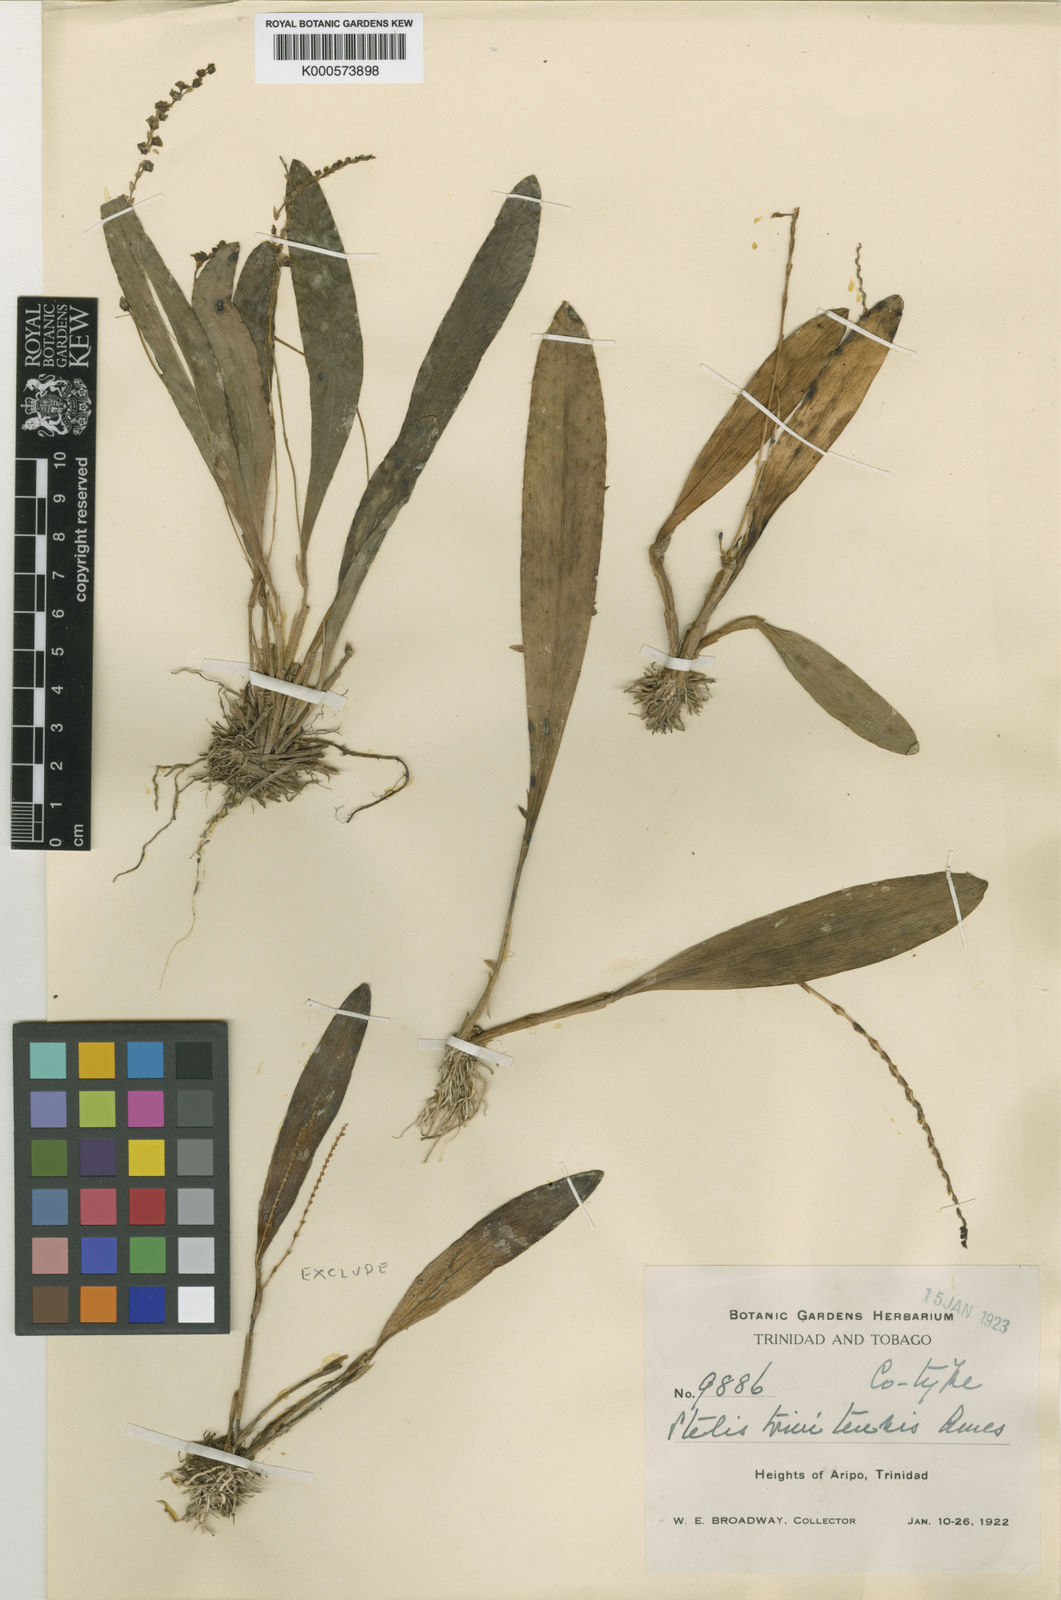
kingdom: Plantae
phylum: Tracheophyta
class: Liliopsida
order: Asparagales
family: Orchidaceae
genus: Stelis
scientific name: Stelis grandiflora
